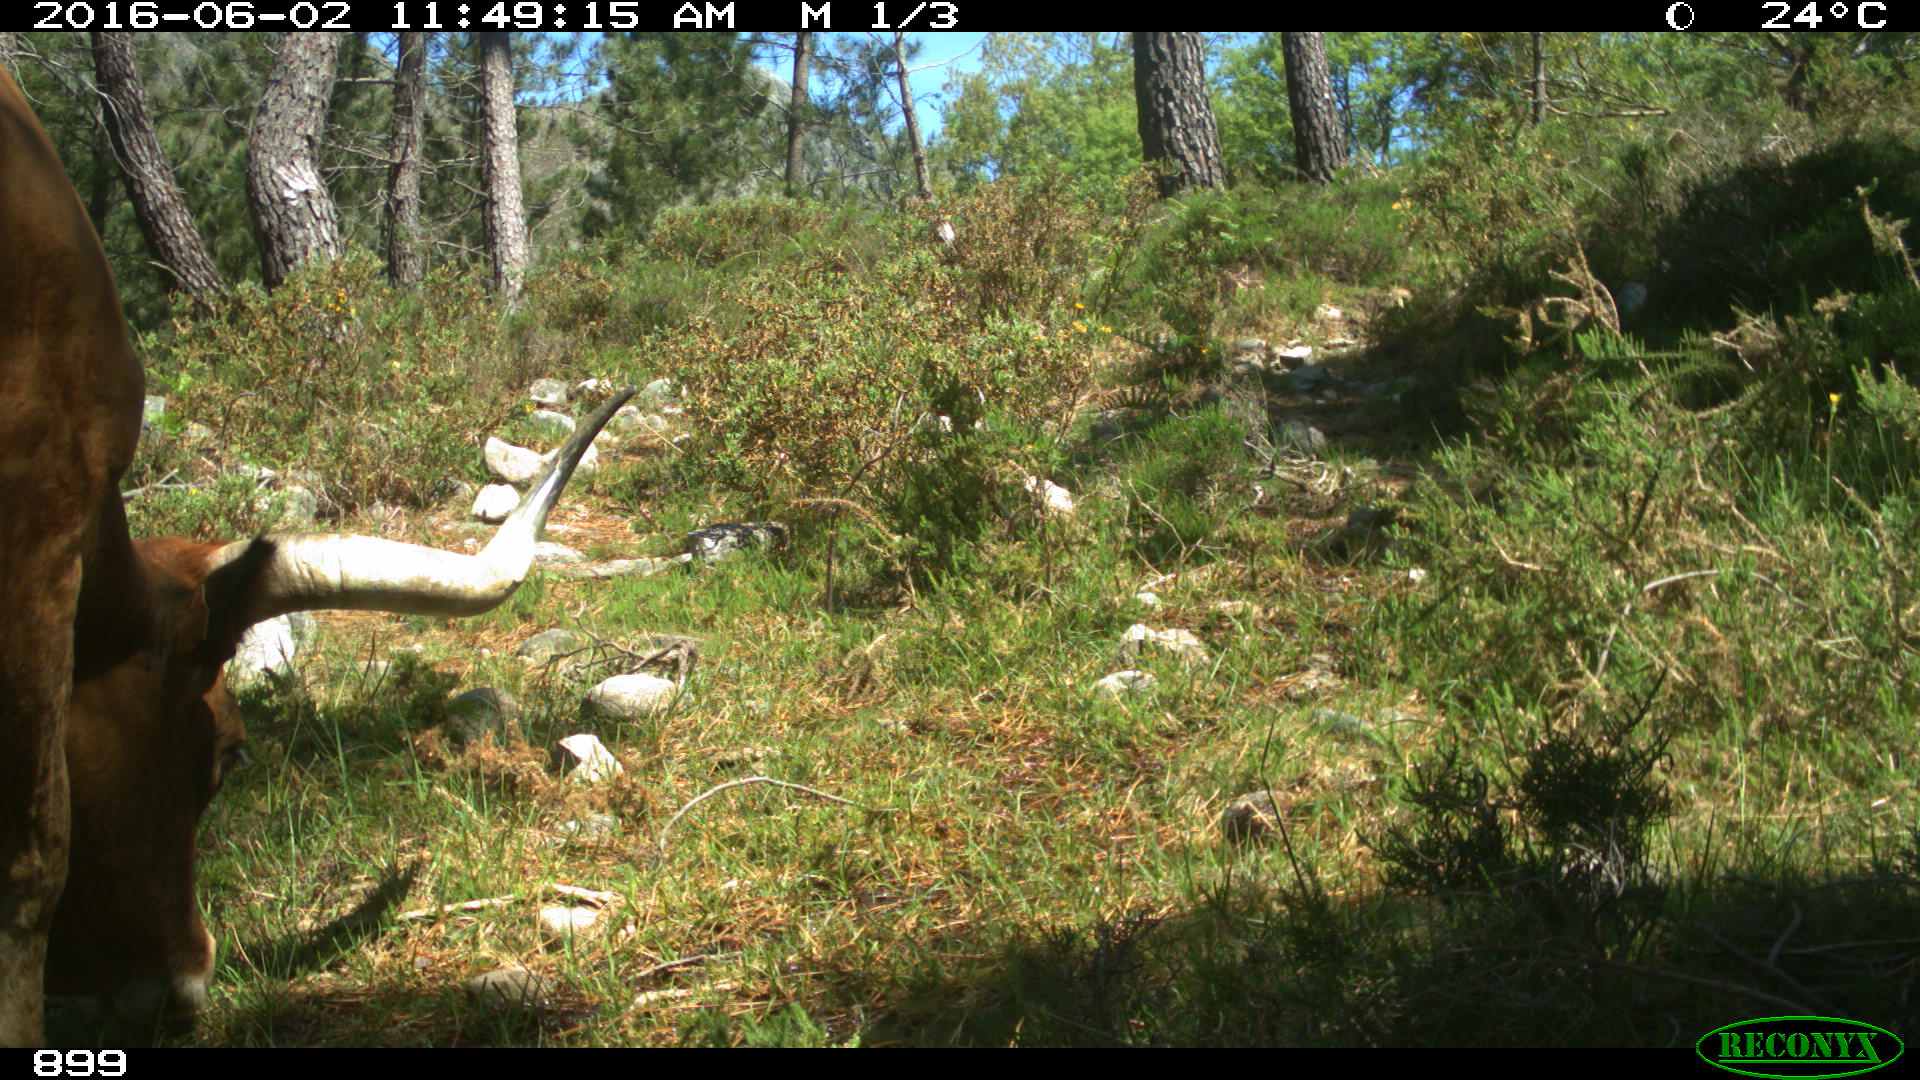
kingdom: Animalia
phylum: Chordata
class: Mammalia
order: Artiodactyla
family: Bovidae
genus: Bos
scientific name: Bos taurus
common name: Domesticated cattle
